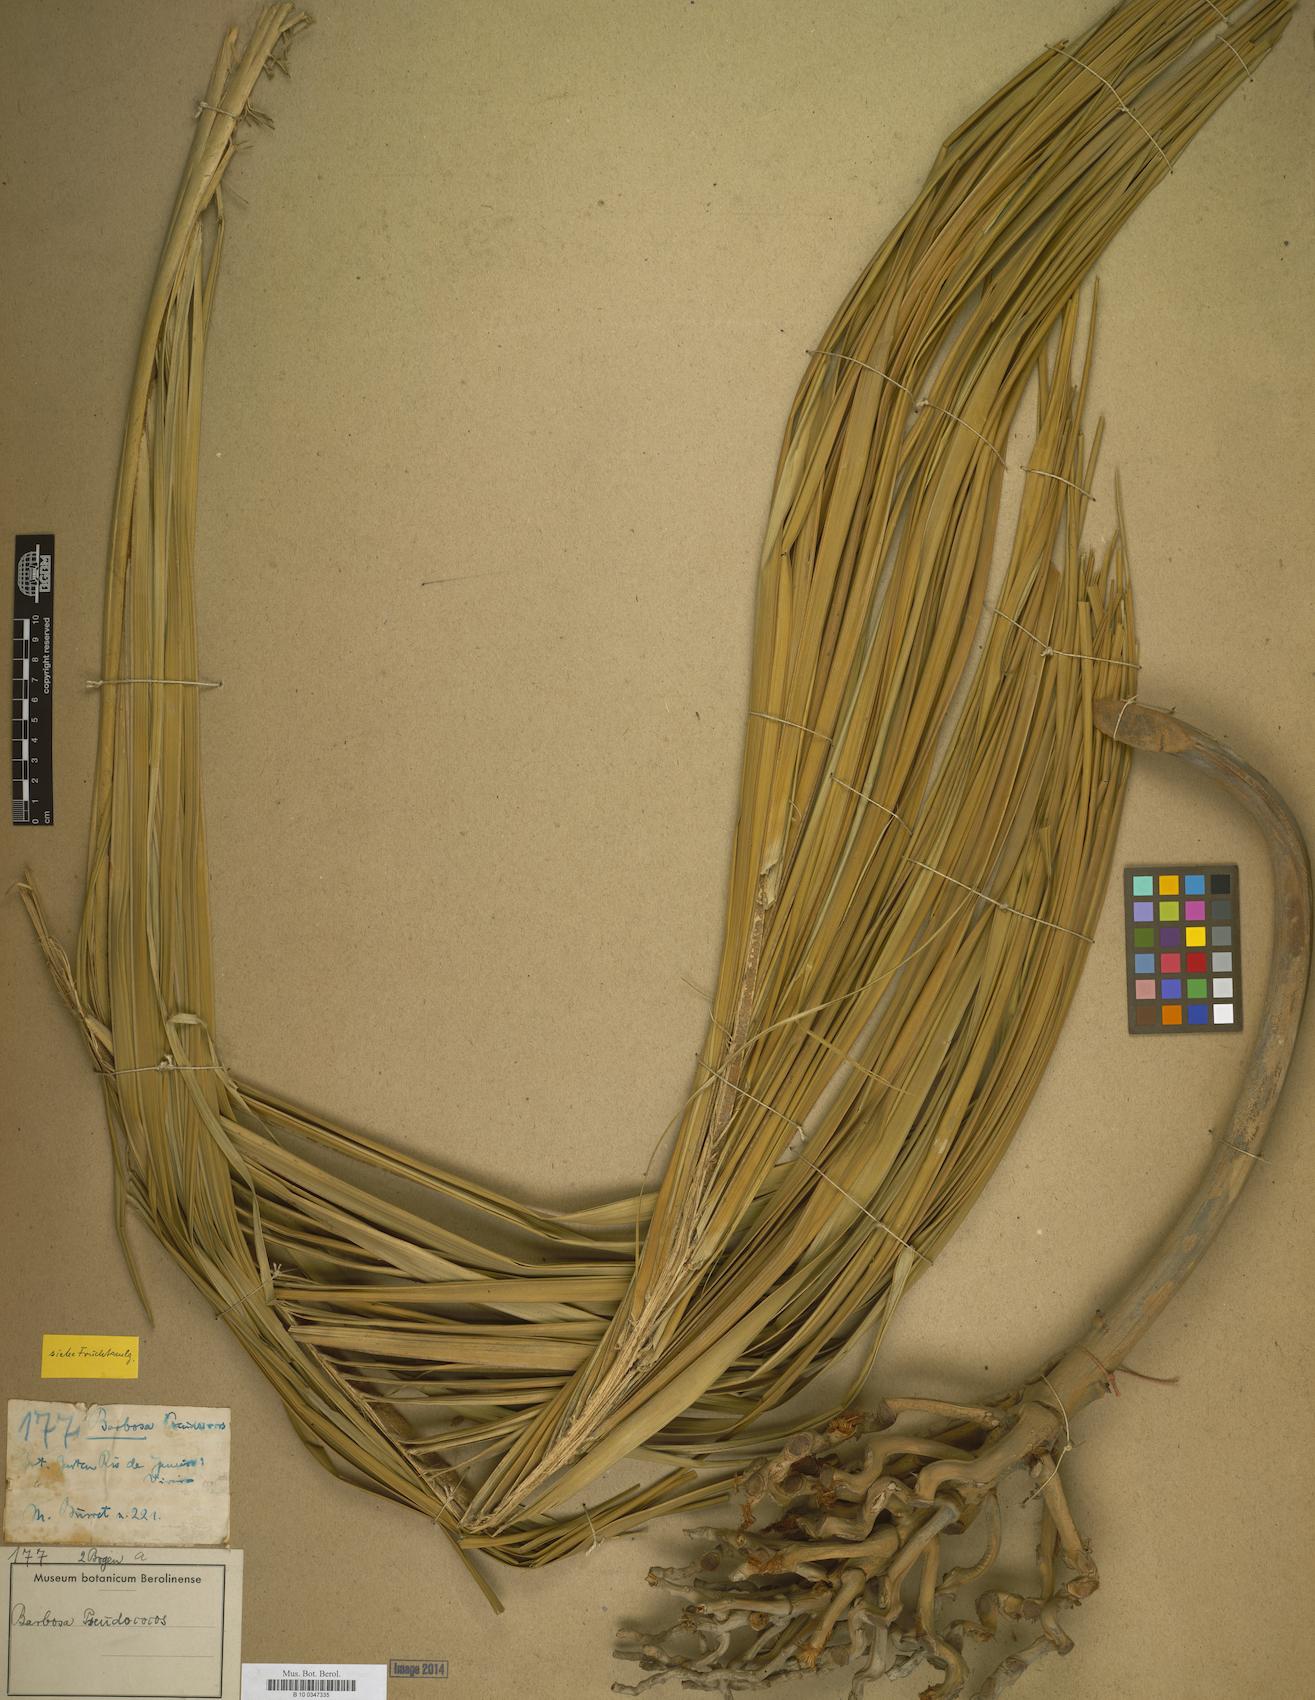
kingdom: Plantae
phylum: Tracheophyta
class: Liliopsida
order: Arecales
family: Arecaceae
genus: Syagrus
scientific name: Syagrus
